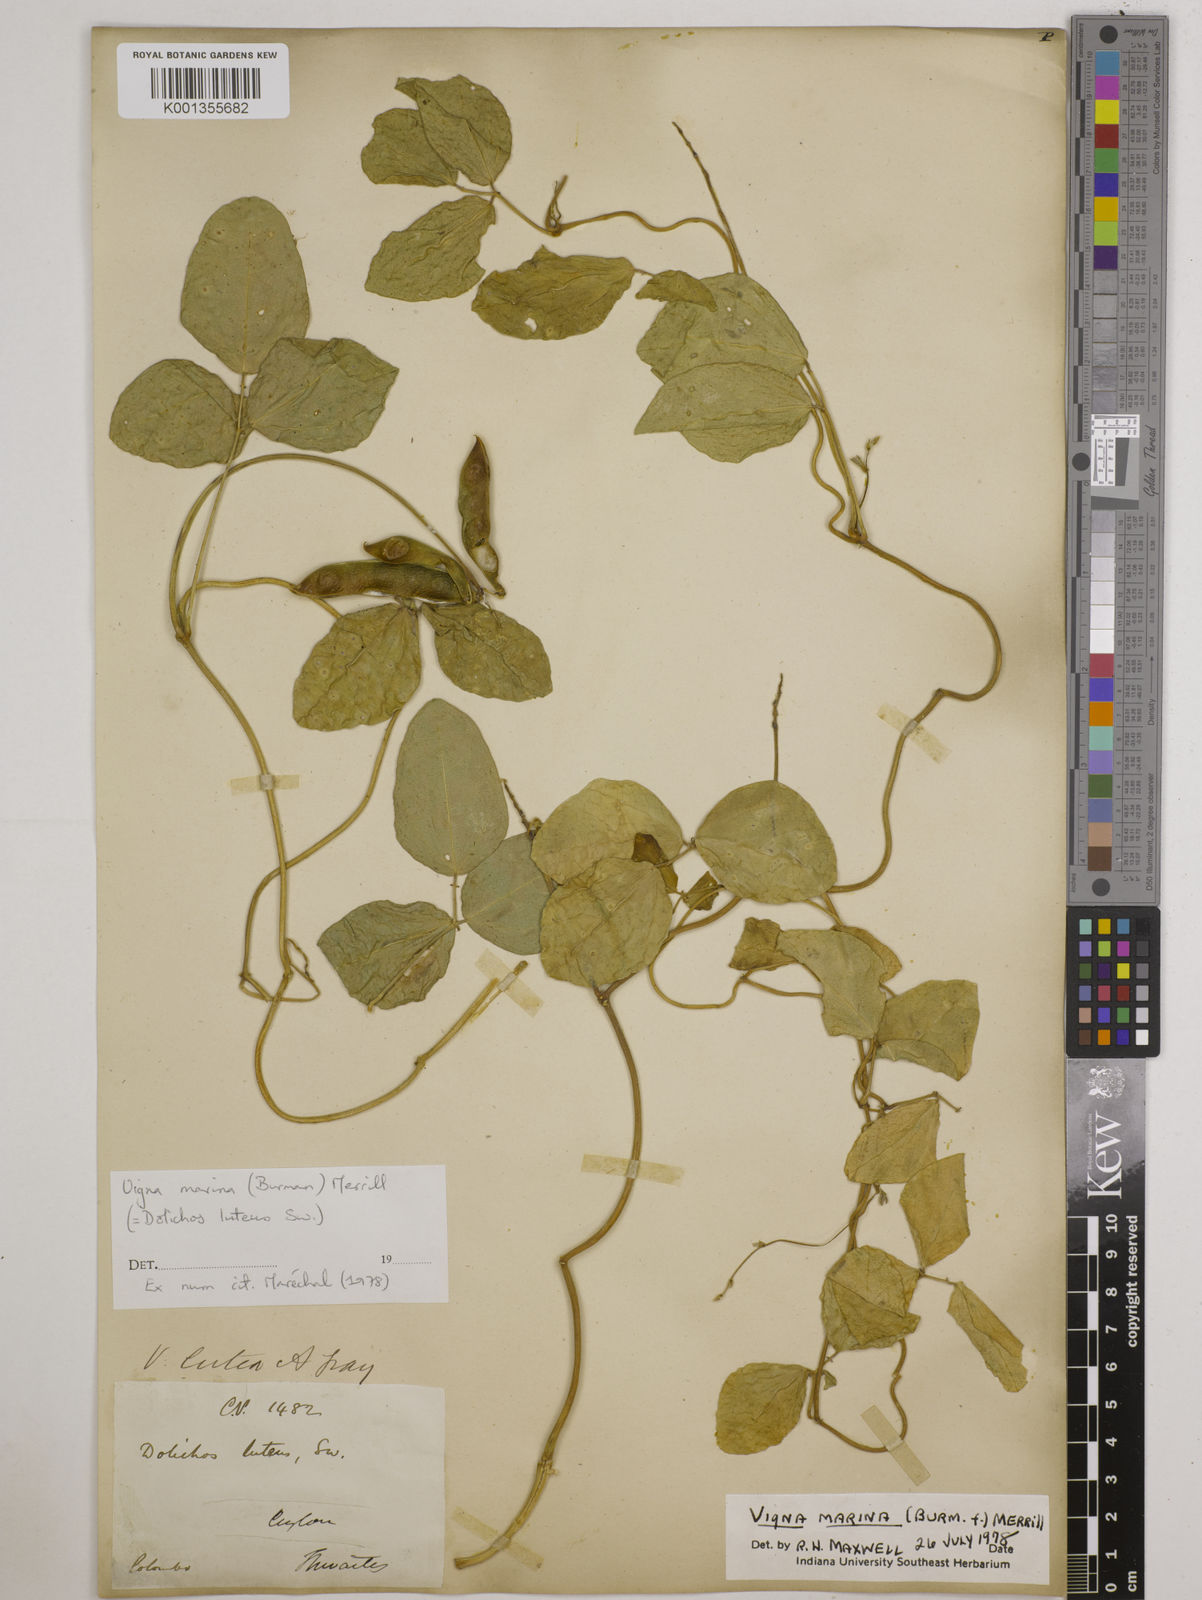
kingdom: Plantae
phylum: Tracheophyta
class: Magnoliopsida
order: Fabales
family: Fabaceae
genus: Vigna
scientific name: Vigna marina
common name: Dune-bean
